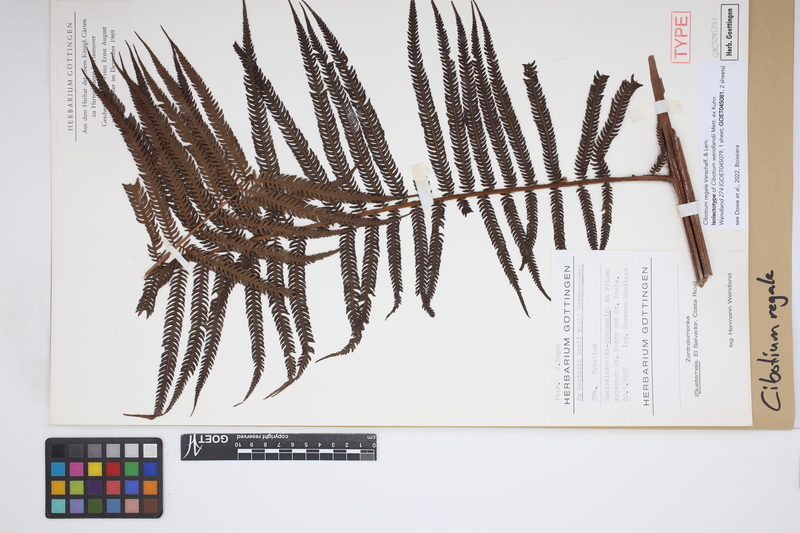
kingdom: Plantae
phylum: Tracheophyta
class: Polypodiopsida
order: Cyatheales
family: Cibotiaceae
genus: Cibotium
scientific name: Cibotium regale
